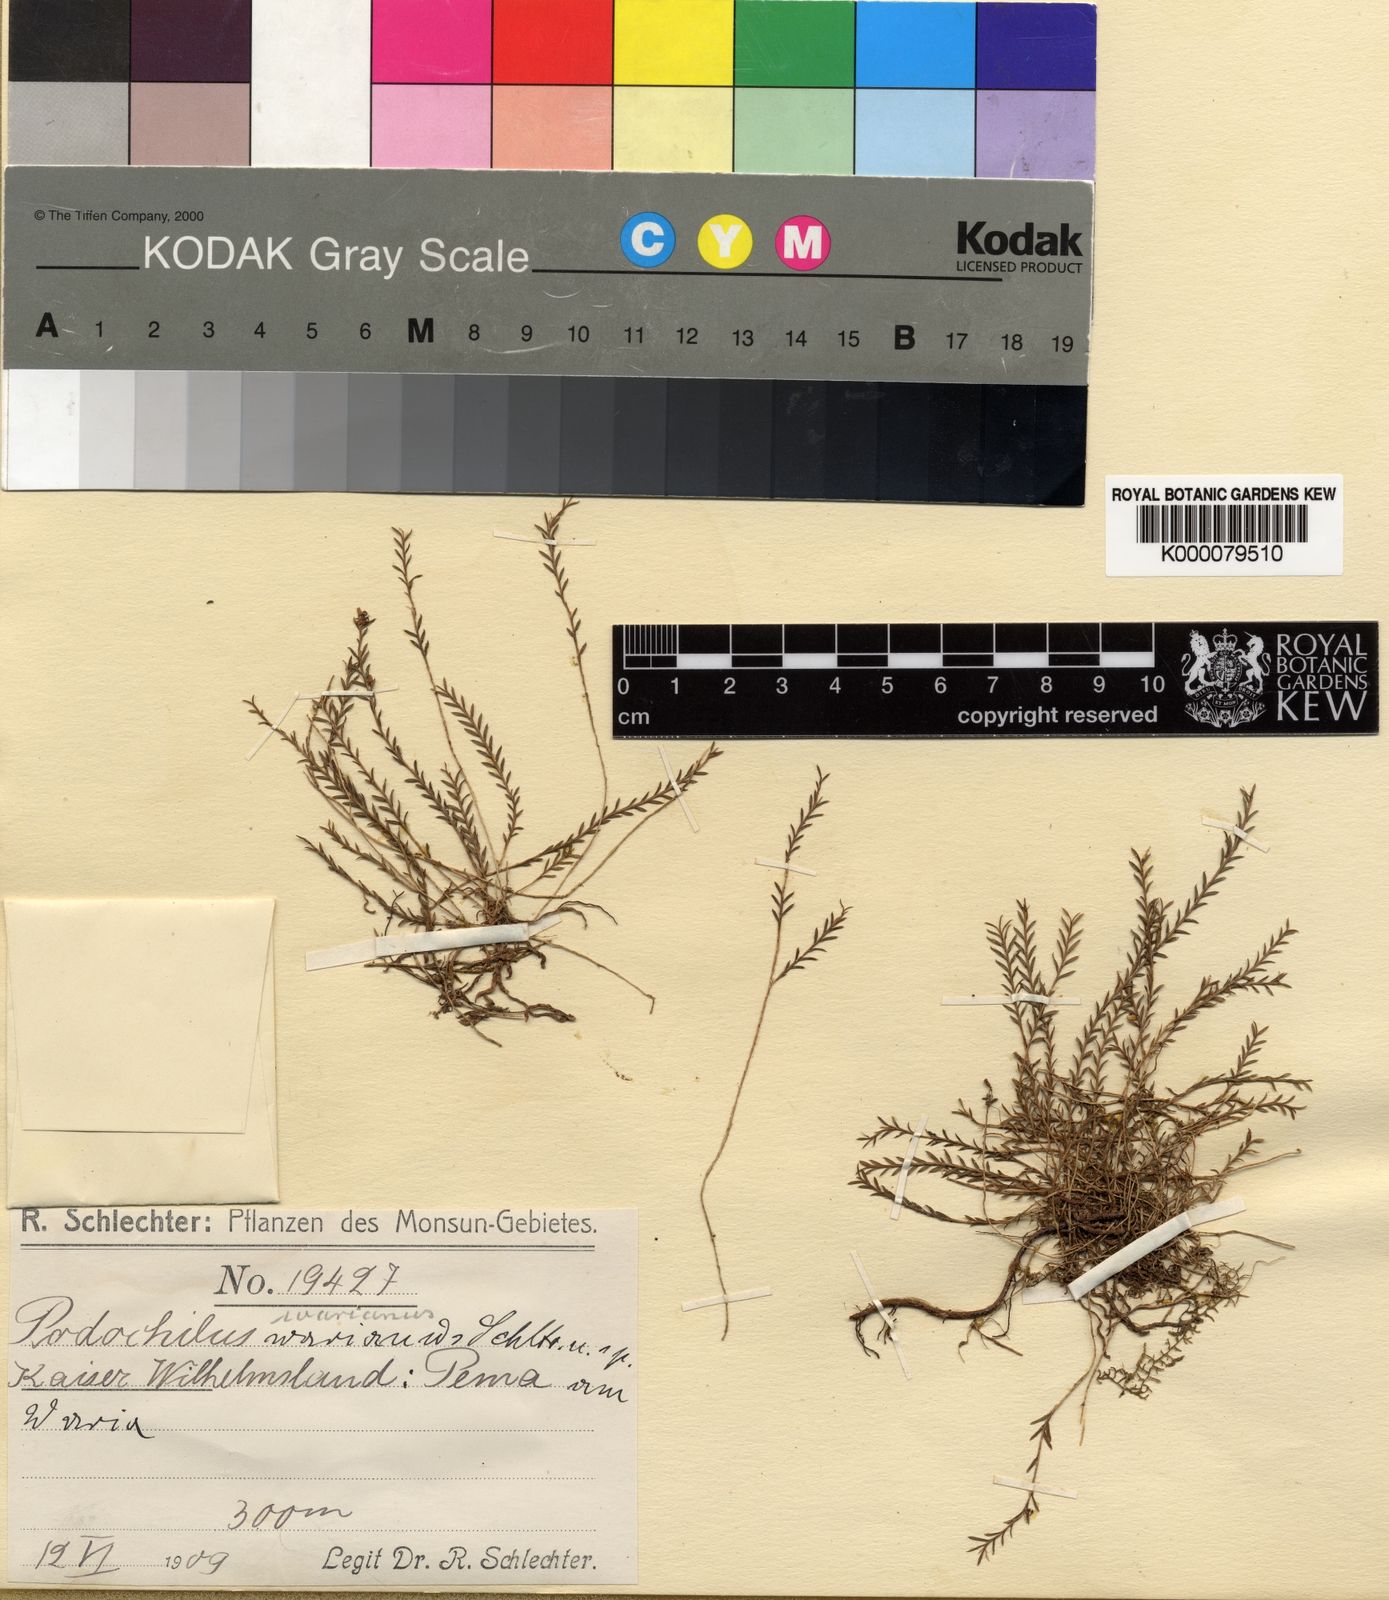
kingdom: Plantae
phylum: Tracheophyta
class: Liliopsida
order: Asparagales
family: Orchidaceae
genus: Podochilus
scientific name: Podochilus warianus
